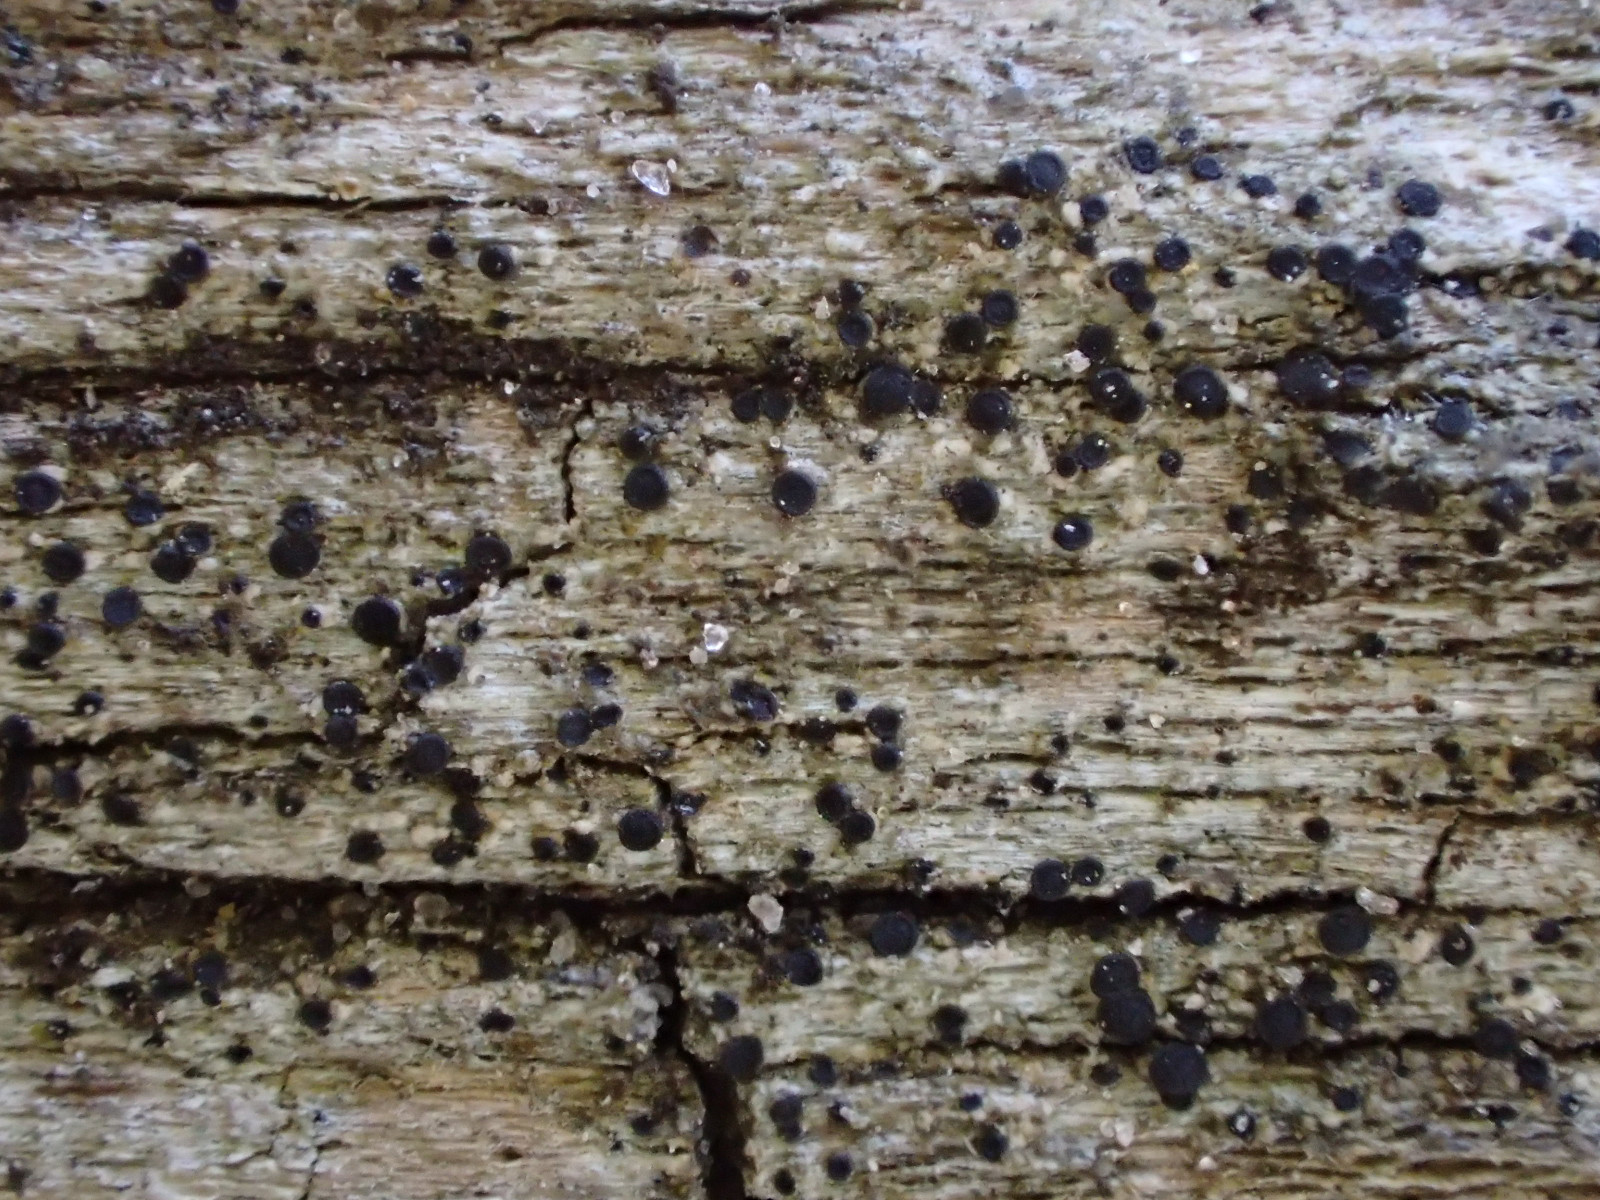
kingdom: Fungi
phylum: Ascomycota
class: Lecanoromycetes
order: Caliciales
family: Caliciaceae
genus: Amandinea
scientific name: Amandinea punctata
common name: liden sortskivelav
